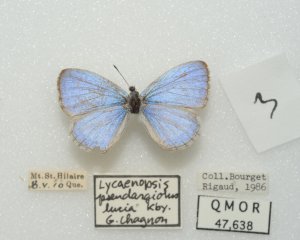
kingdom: Animalia
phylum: Arthropoda
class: Insecta
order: Lepidoptera
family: Lycaenidae
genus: Celastrina
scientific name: Celastrina lucia
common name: Northern Spring Azure
